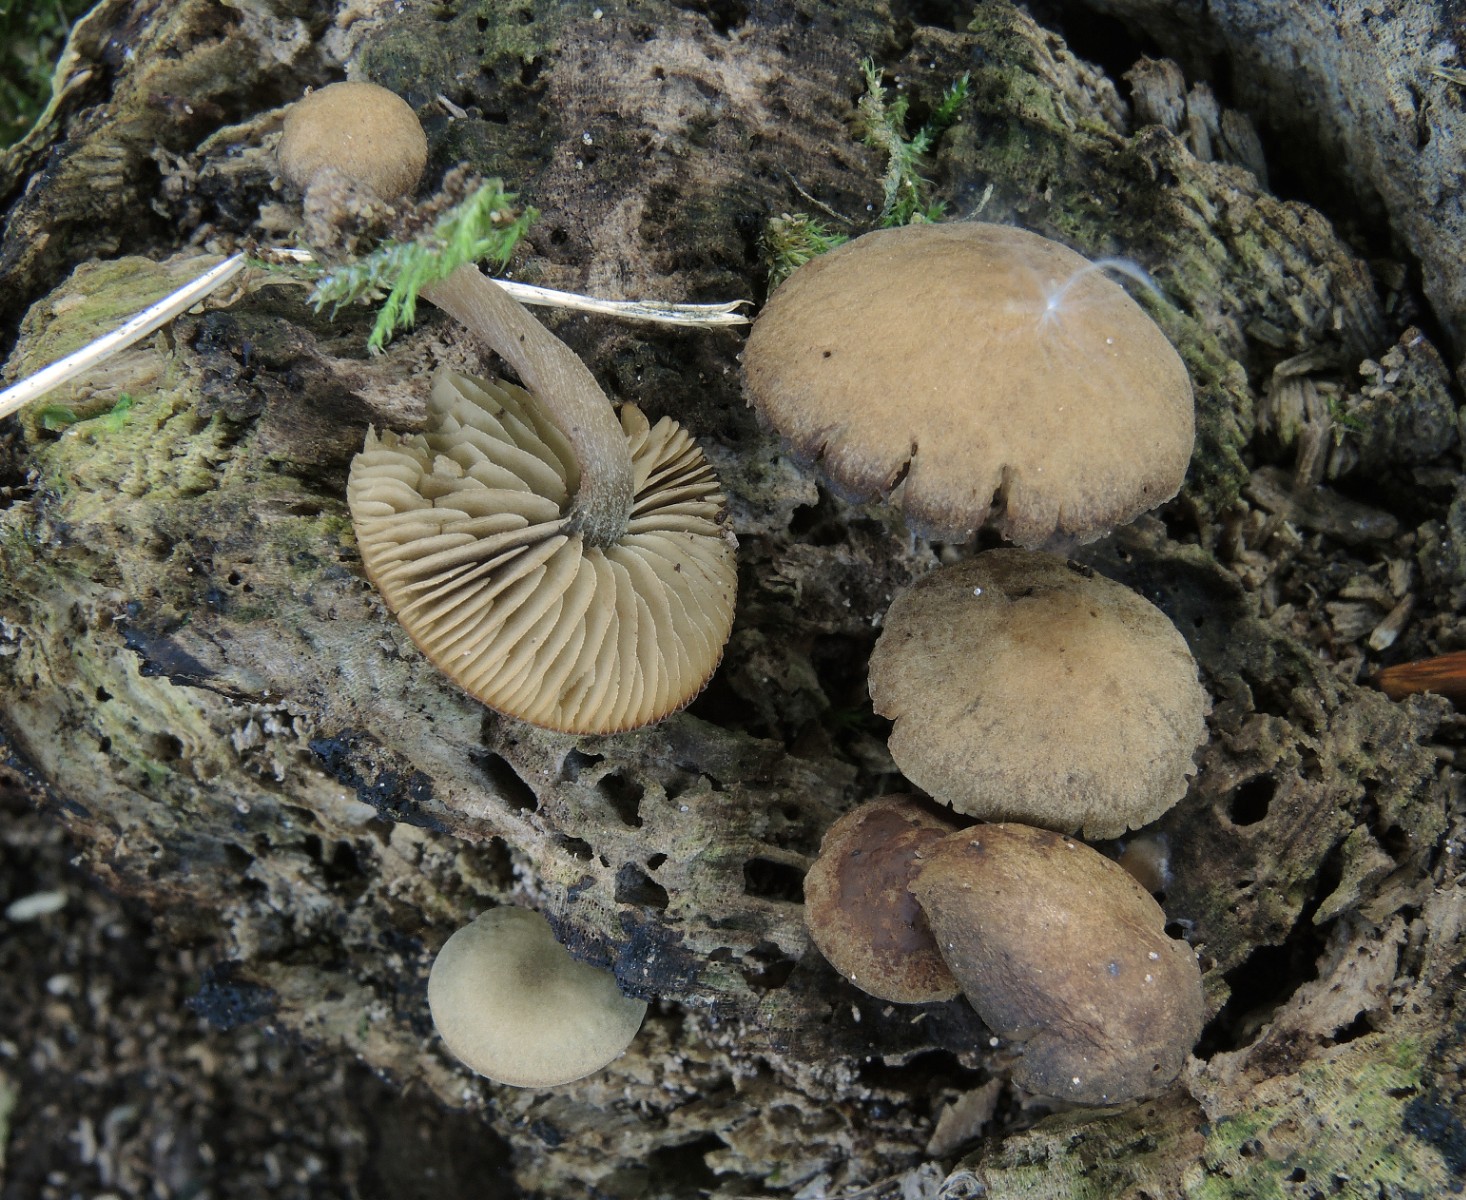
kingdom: Fungi
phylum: Basidiomycota
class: Agaricomycetes
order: Agaricales
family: Crepidotaceae
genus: Simocybe
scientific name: Simocybe centunculus
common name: enlig skyggehat
